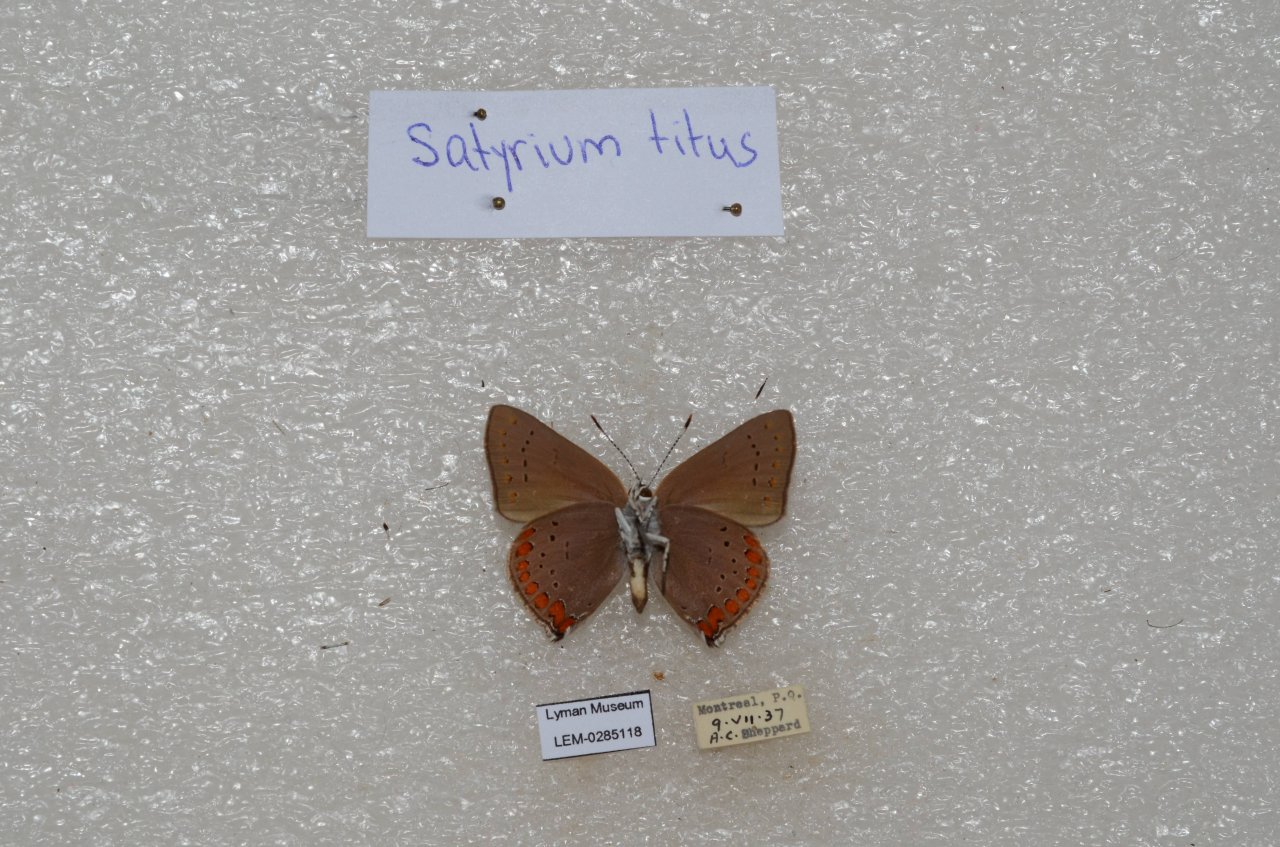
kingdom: Animalia
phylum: Arthropoda
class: Insecta
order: Lepidoptera
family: Lycaenidae
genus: Harkenclenus
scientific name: Harkenclenus titus
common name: Coral Hairstreak
